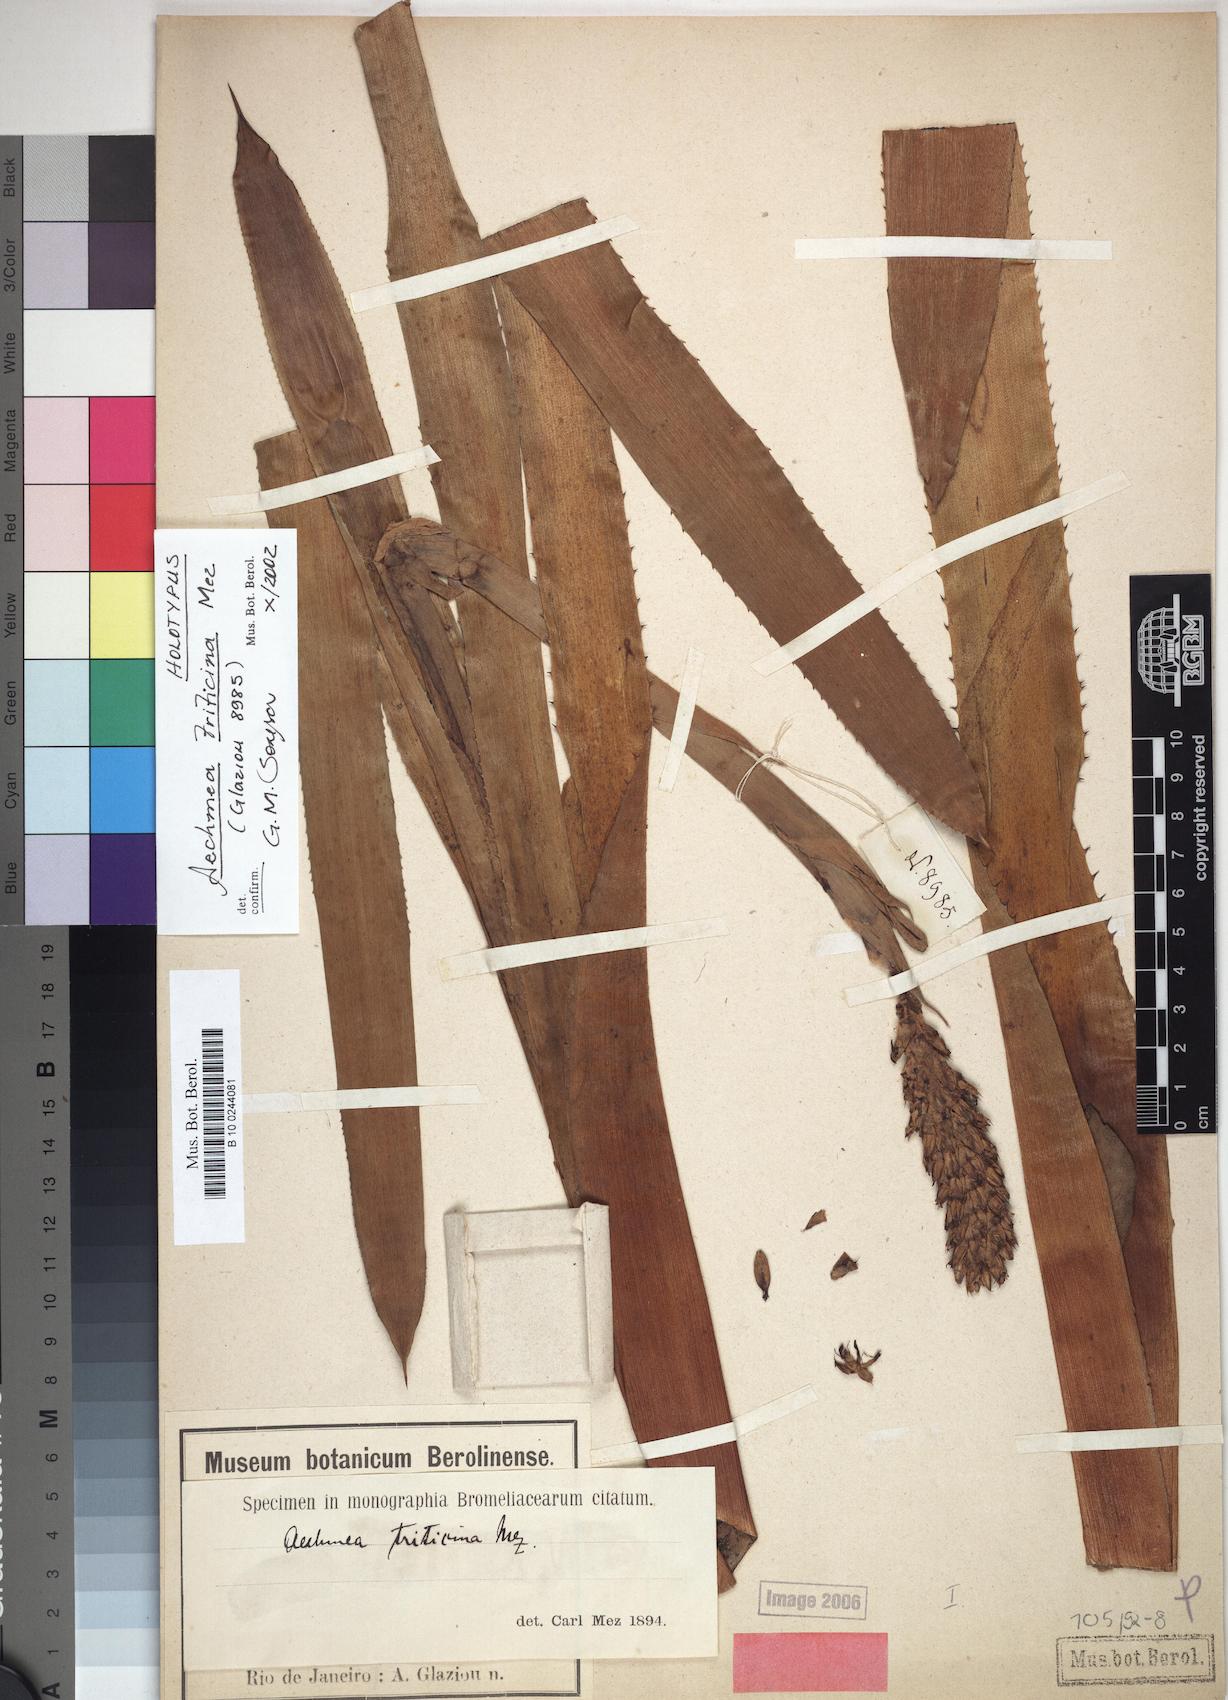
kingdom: Plantae
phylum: Tracheophyta
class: Liliopsida
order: Poales
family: Bromeliaceae
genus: Aechmea
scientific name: Aechmea triticina
